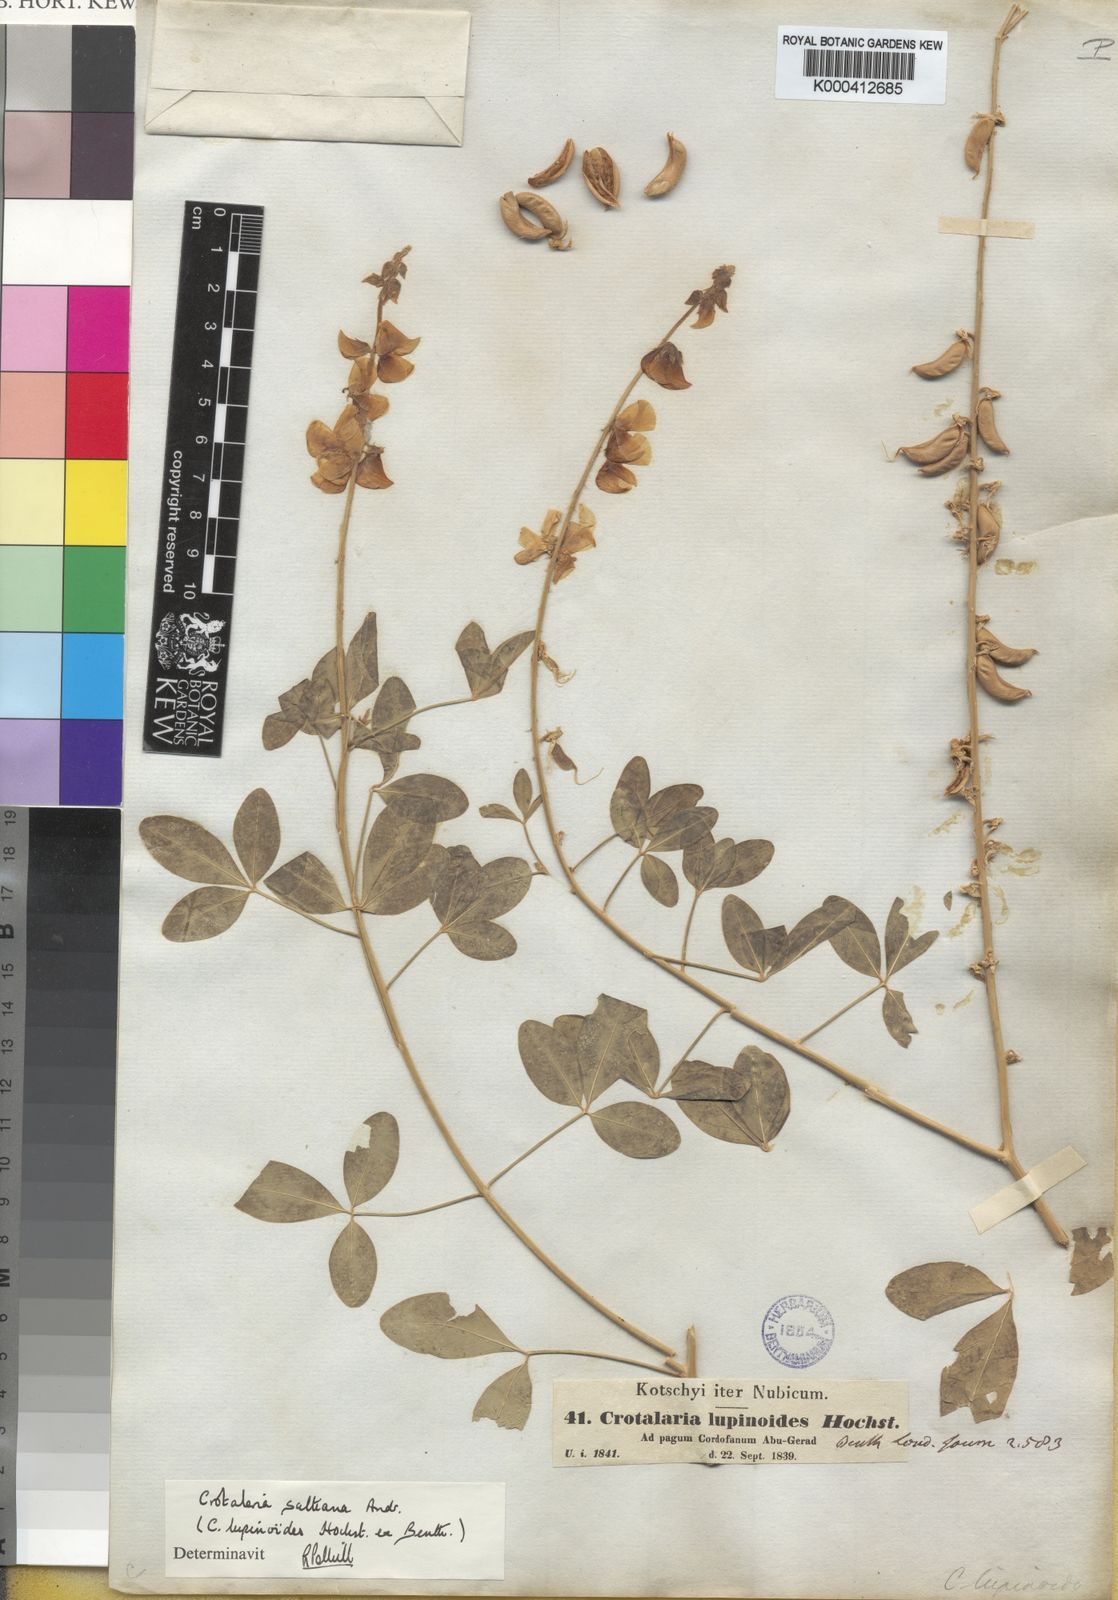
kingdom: Plantae
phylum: Tracheophyta
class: Magnoliopsida
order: Fabales
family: Fabaceae
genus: Crotalaria
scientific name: Crotalaria saltiana
